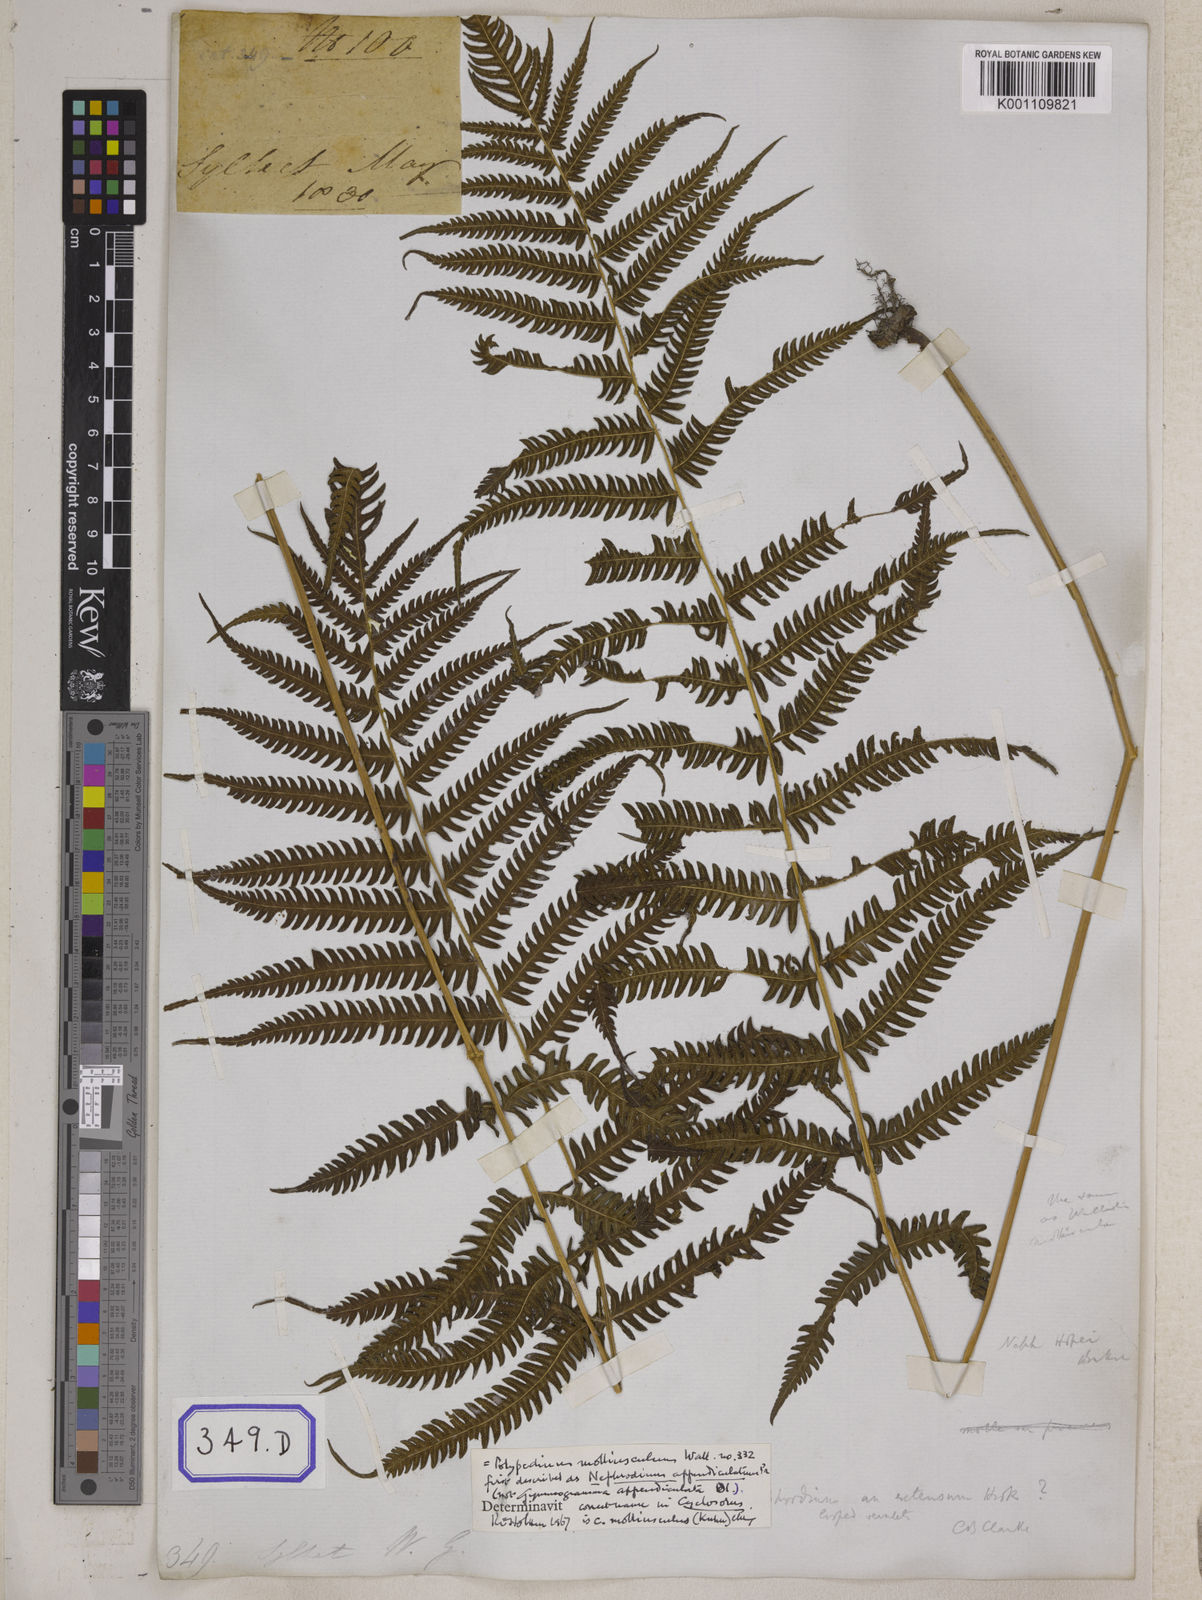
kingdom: Plantae
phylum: Tracheophyta
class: Polypodiopsida
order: Polypodiales
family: Thelypteridaceae
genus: Christella
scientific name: Christella procera
